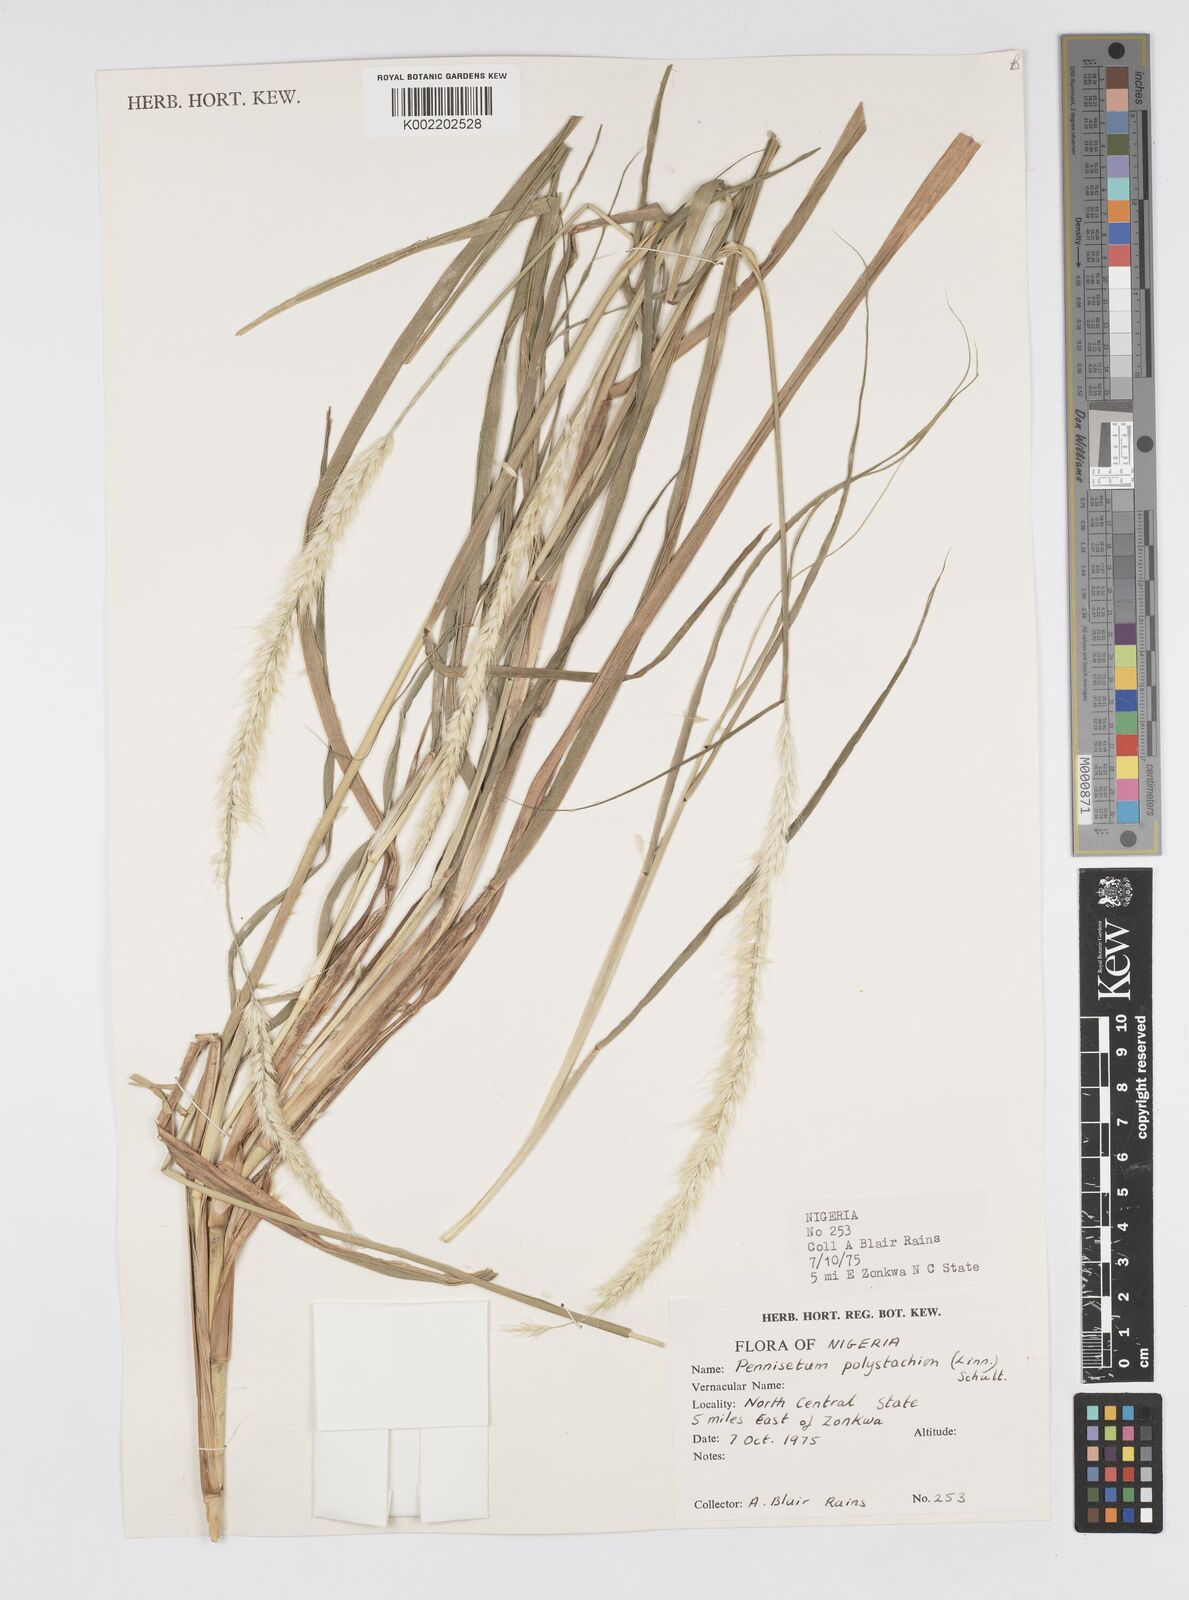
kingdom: Plantae
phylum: Tracheophyta
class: Liliopsida
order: Poales
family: Poaceae
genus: Setaria
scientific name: Setaria parviflora
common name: Knotroot bristle-grass
